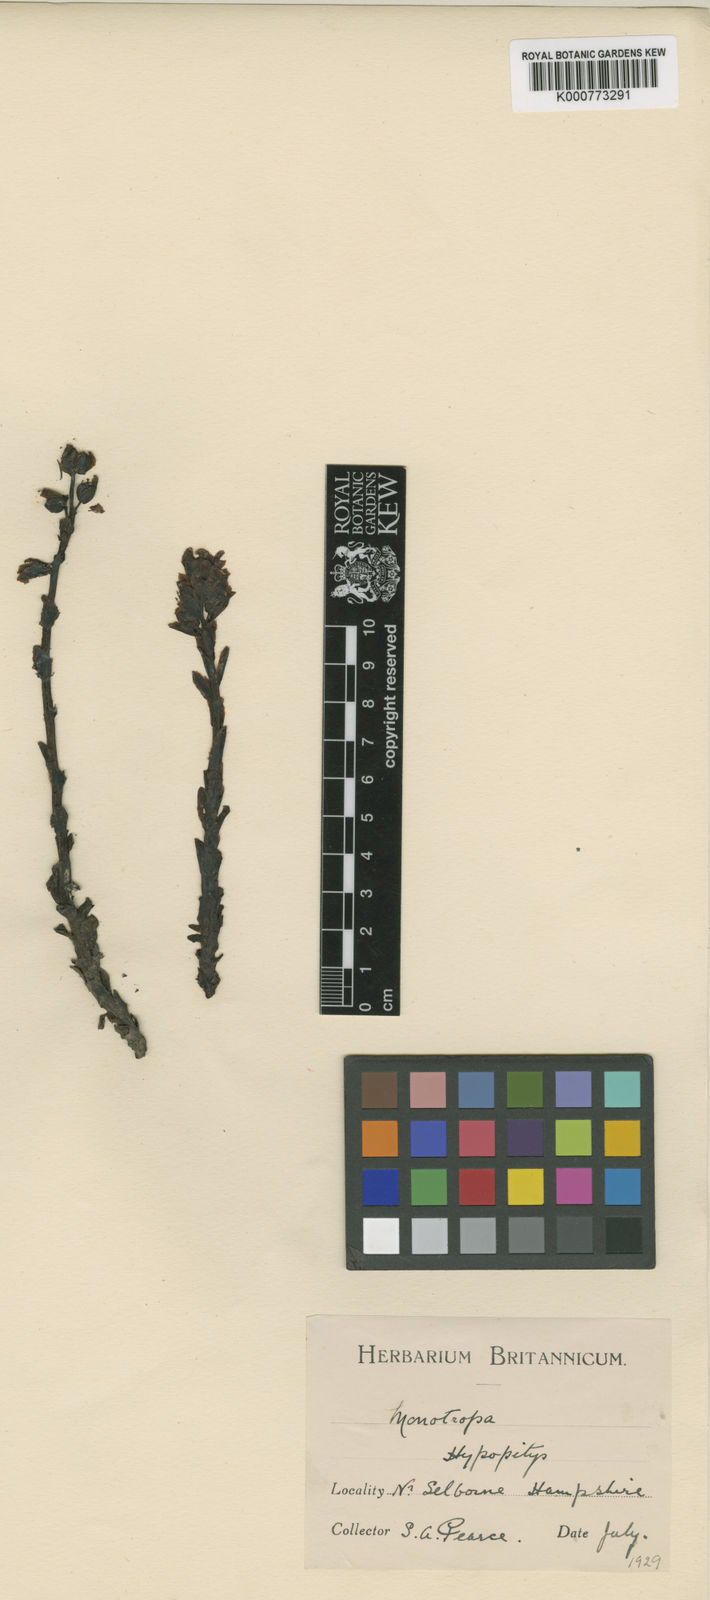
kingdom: Plantae
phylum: Tracheophyta
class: Magnoliopsida
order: Ericales
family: Ericaceae
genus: Monotropa
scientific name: Monotropa
